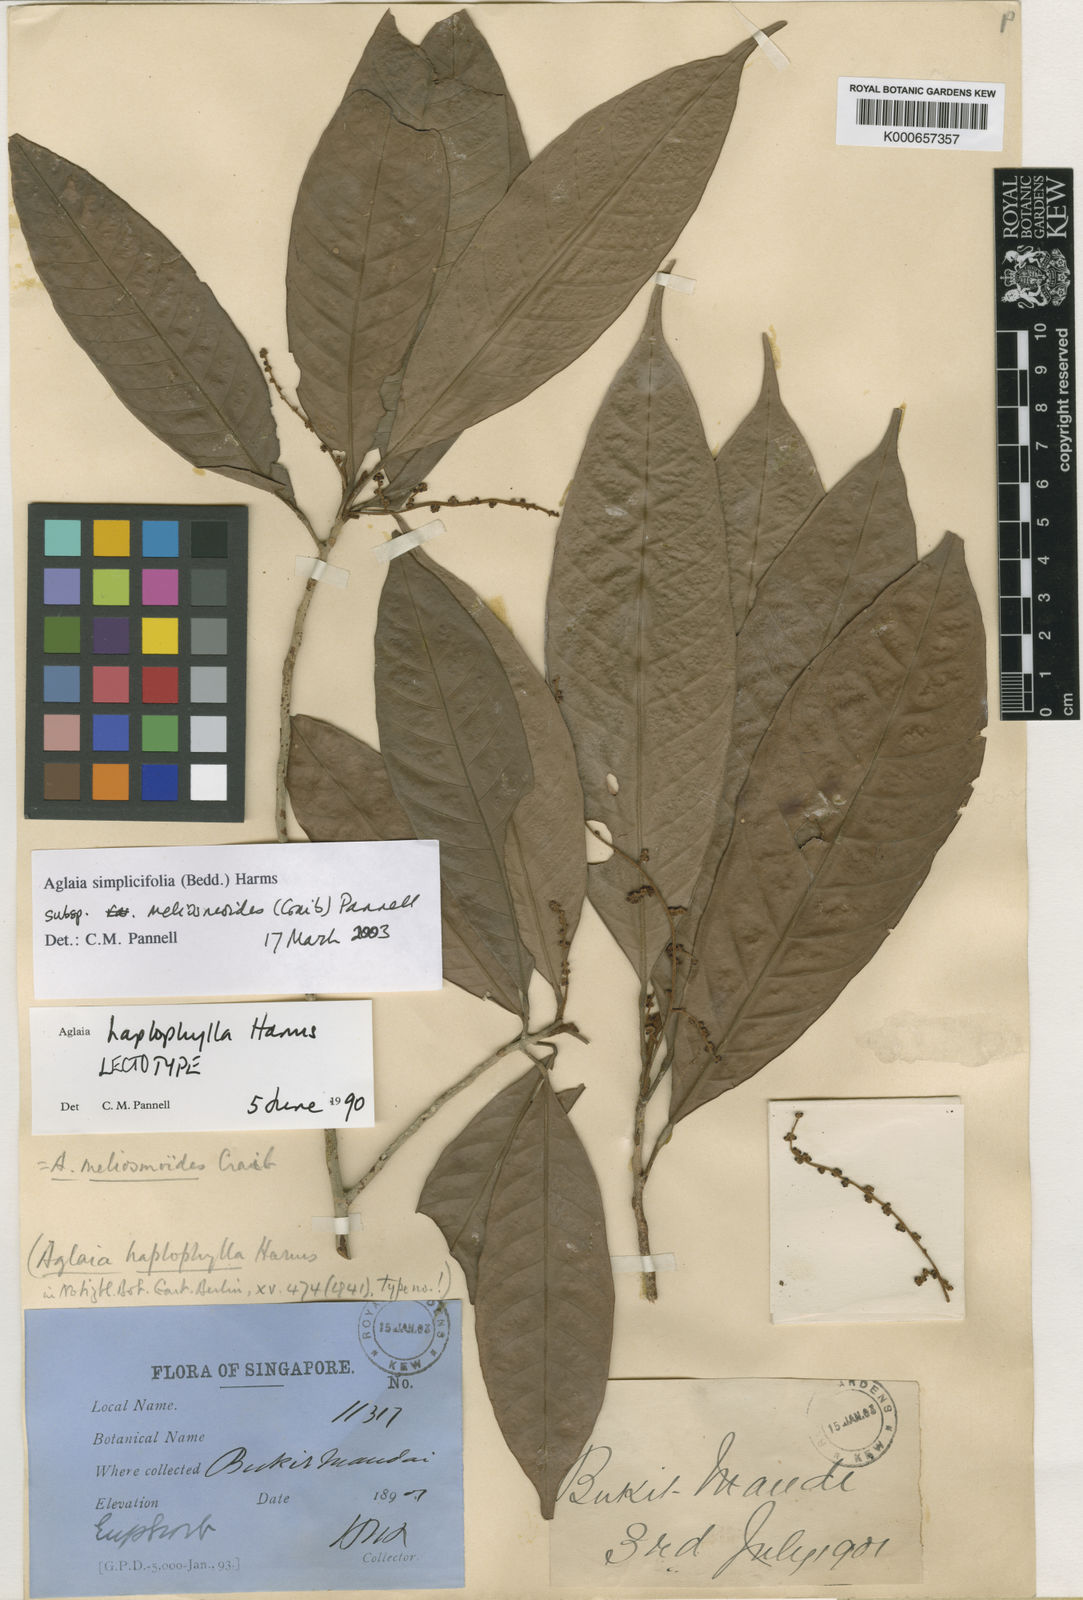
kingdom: Plantae
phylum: Tracheophyta
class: Magnoliopsida
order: Sapindales
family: Meliaceae
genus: Aglaia
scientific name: Aglaia simplicifolia
